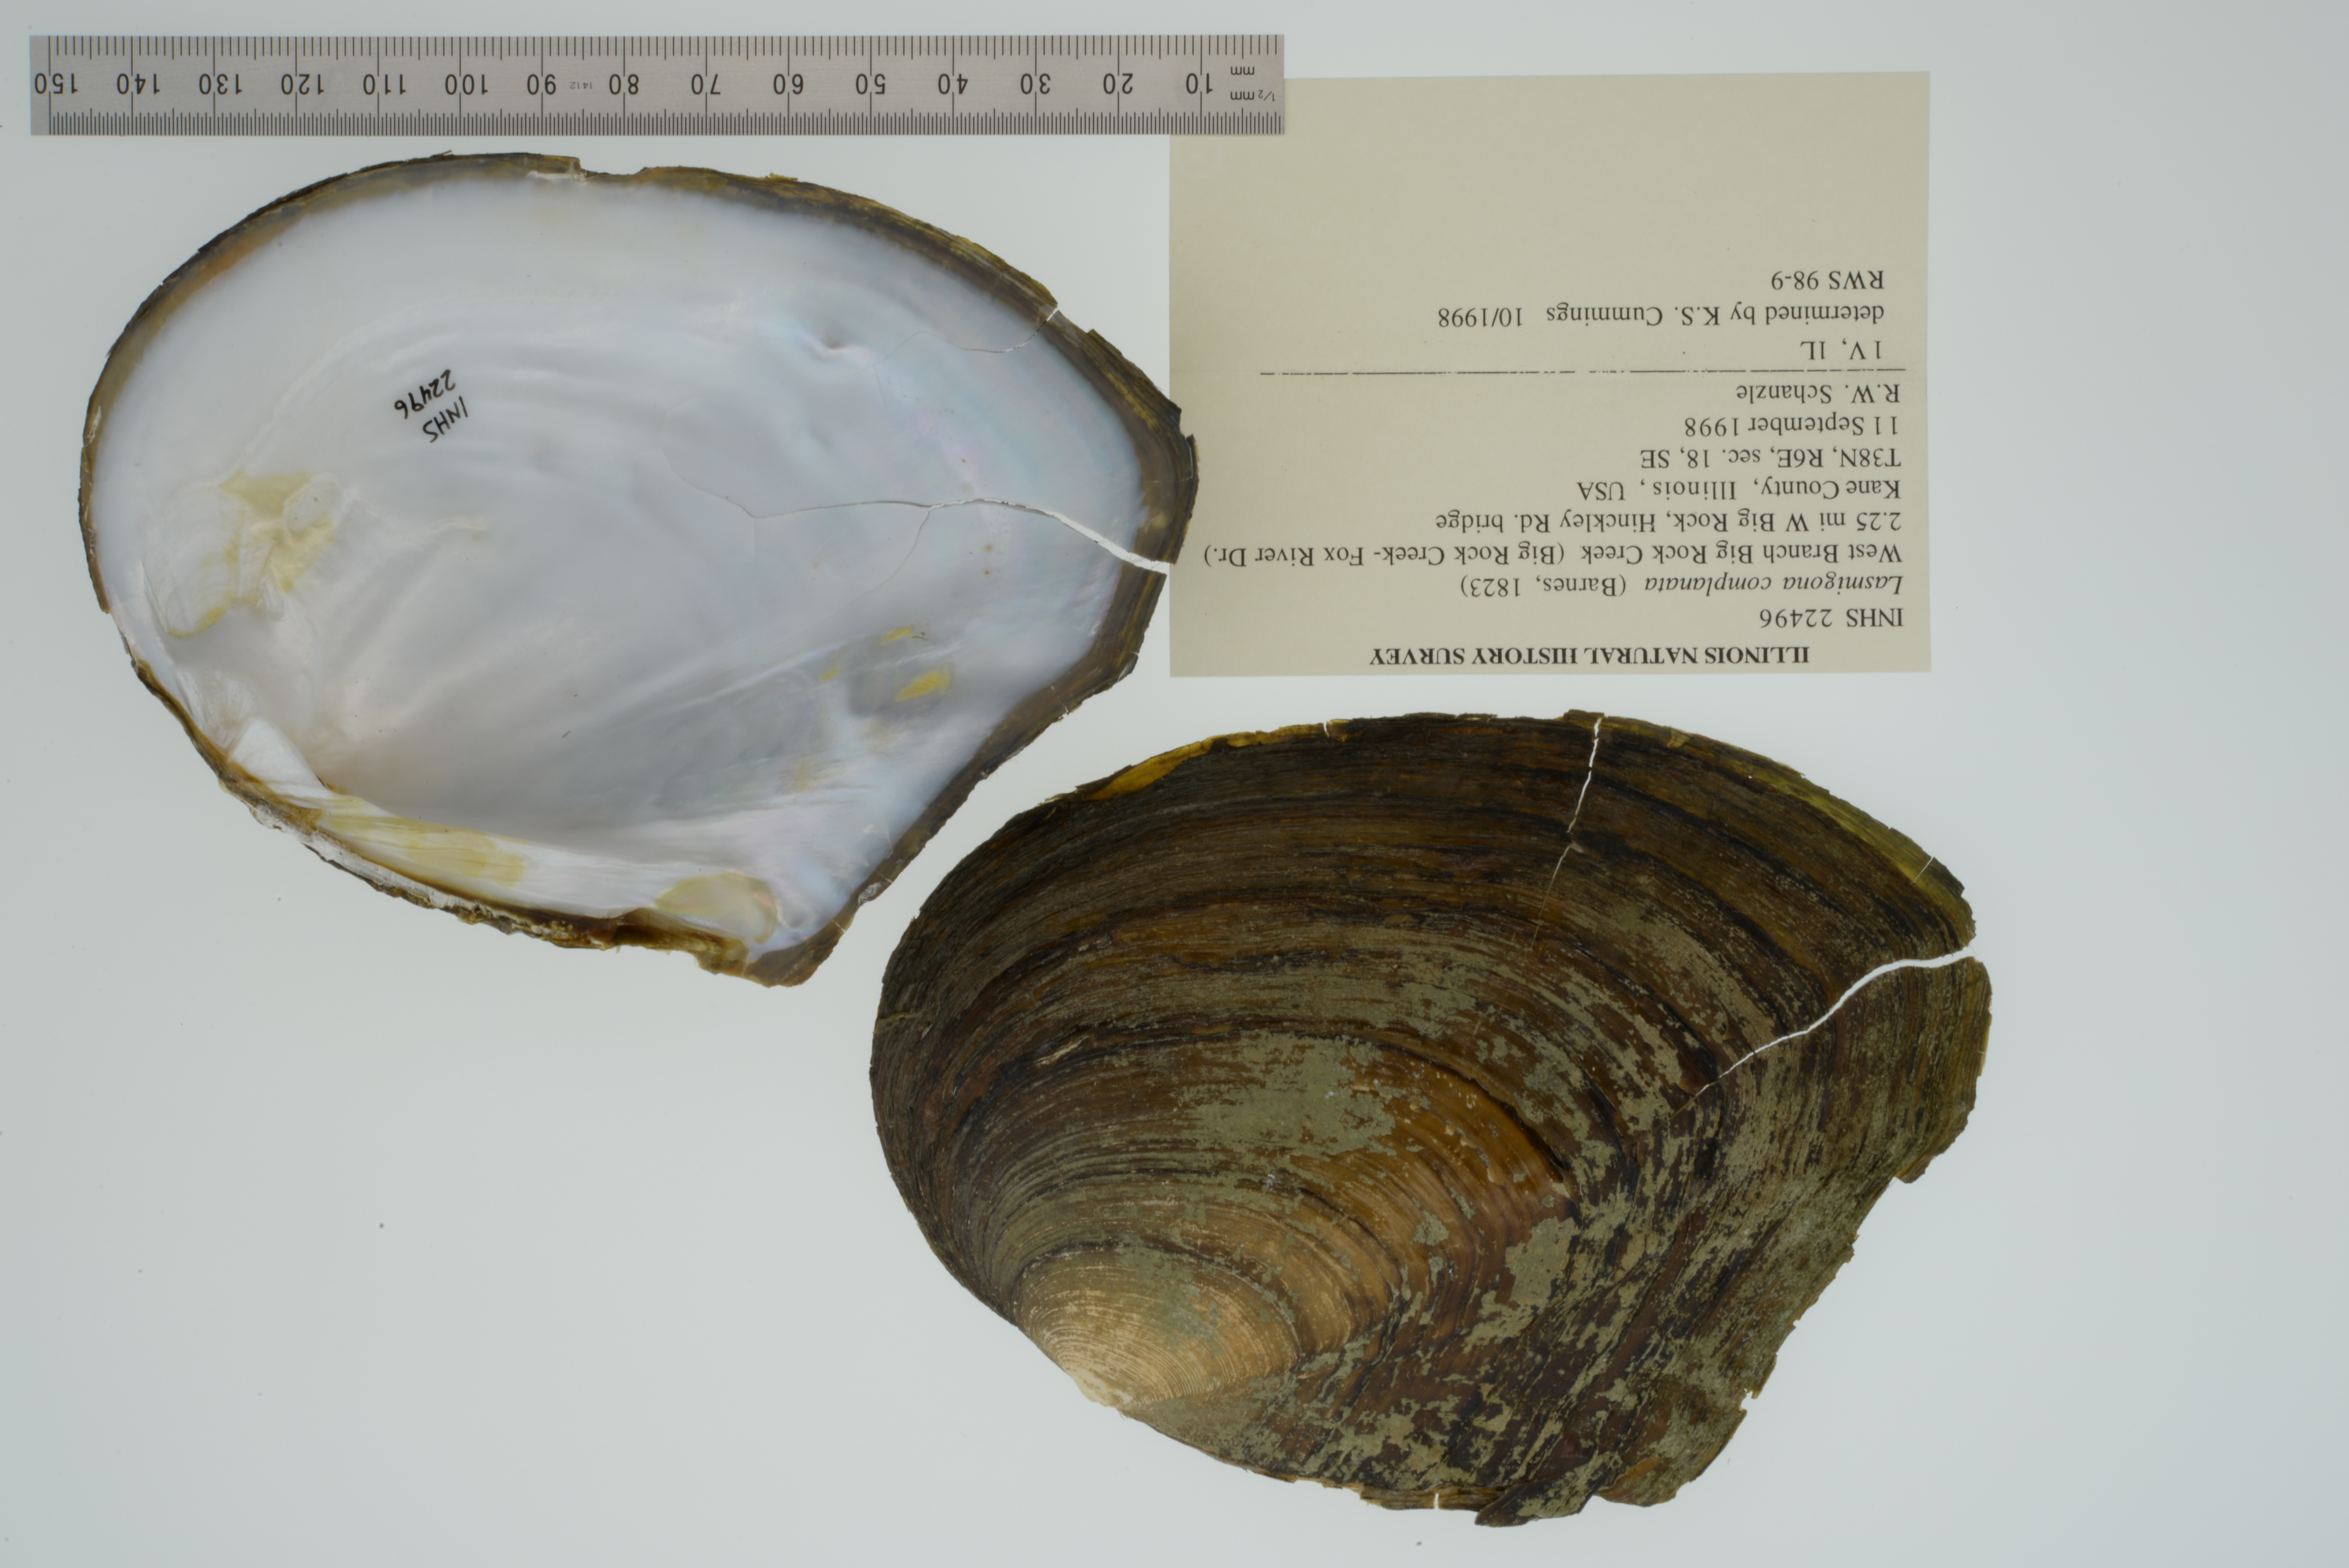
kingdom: Animalia
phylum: Mollusca
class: Bivalvia
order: Unionida
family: Unionidae
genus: Lasmigona
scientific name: Lasmigona complanata
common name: White heelsplitter
